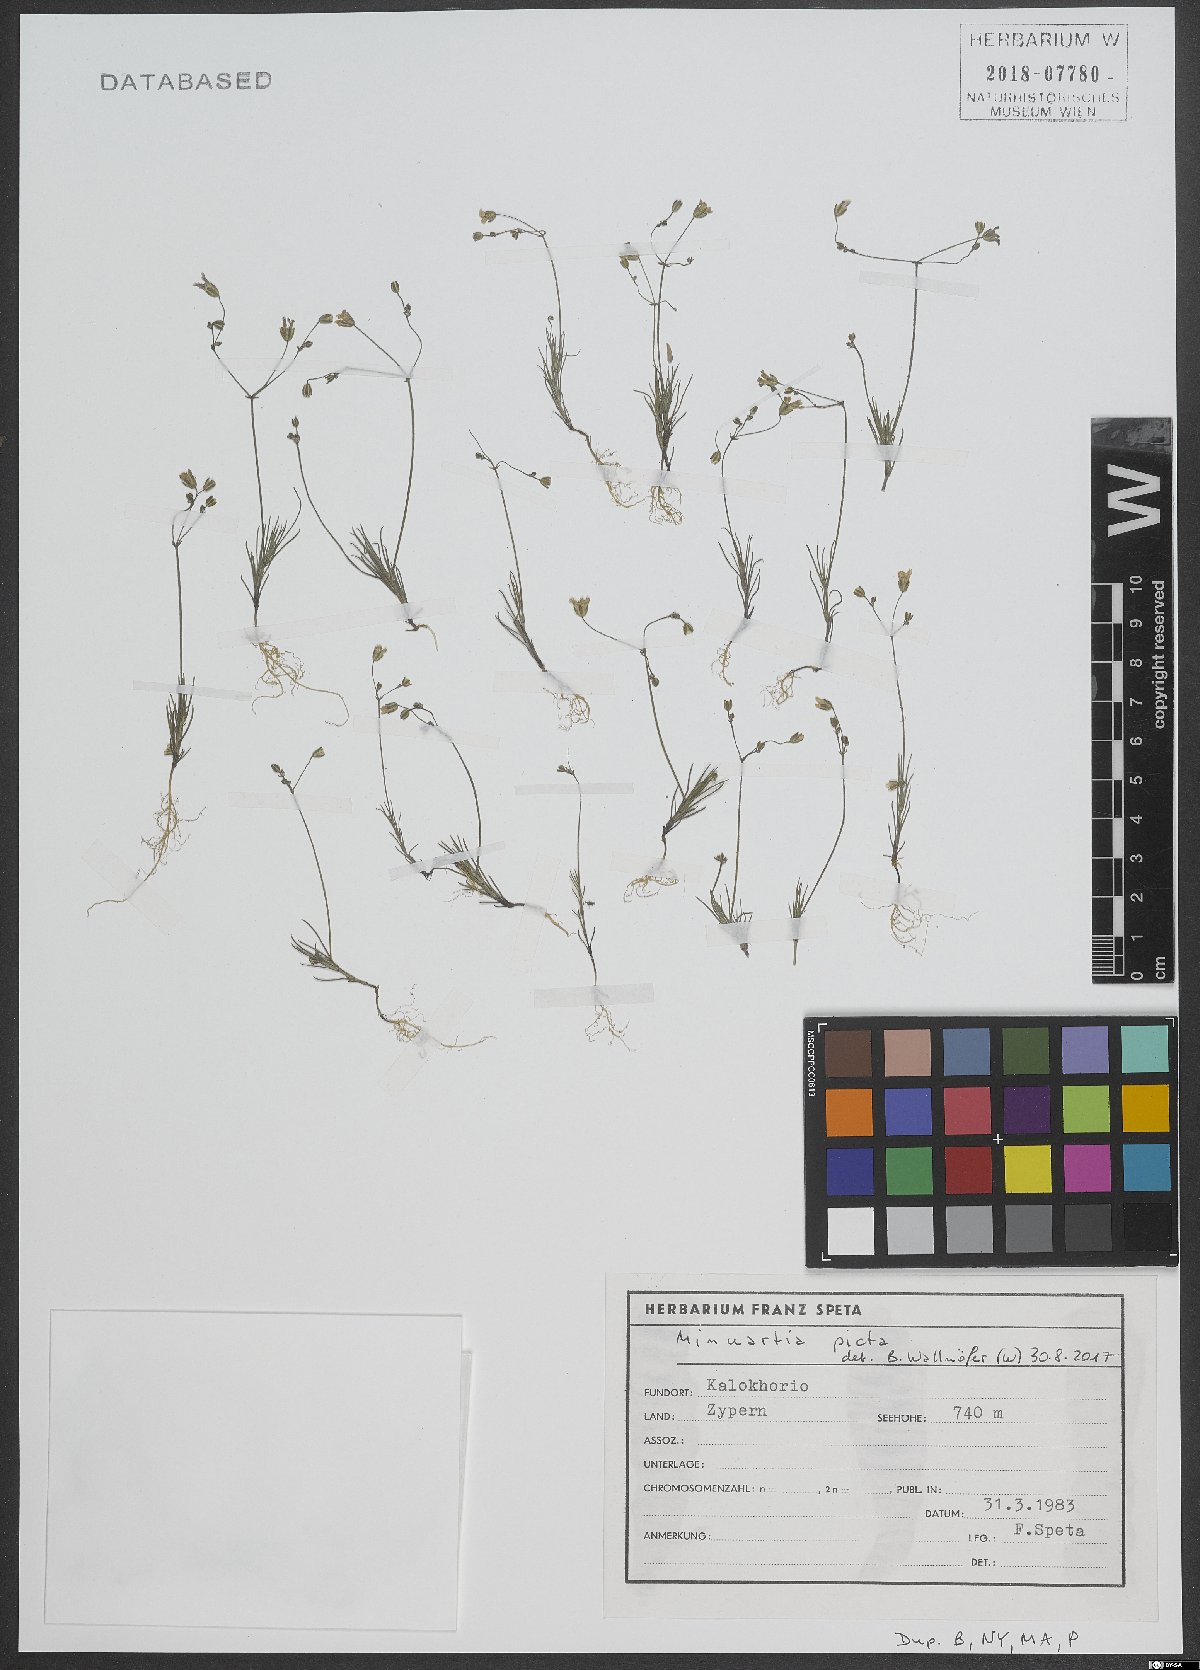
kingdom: Plantae
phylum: Tracheophyta
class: Magnoliopsida
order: Caryophyllales
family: Caryophyllaceae
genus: Eremogone
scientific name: Eremogone picta
